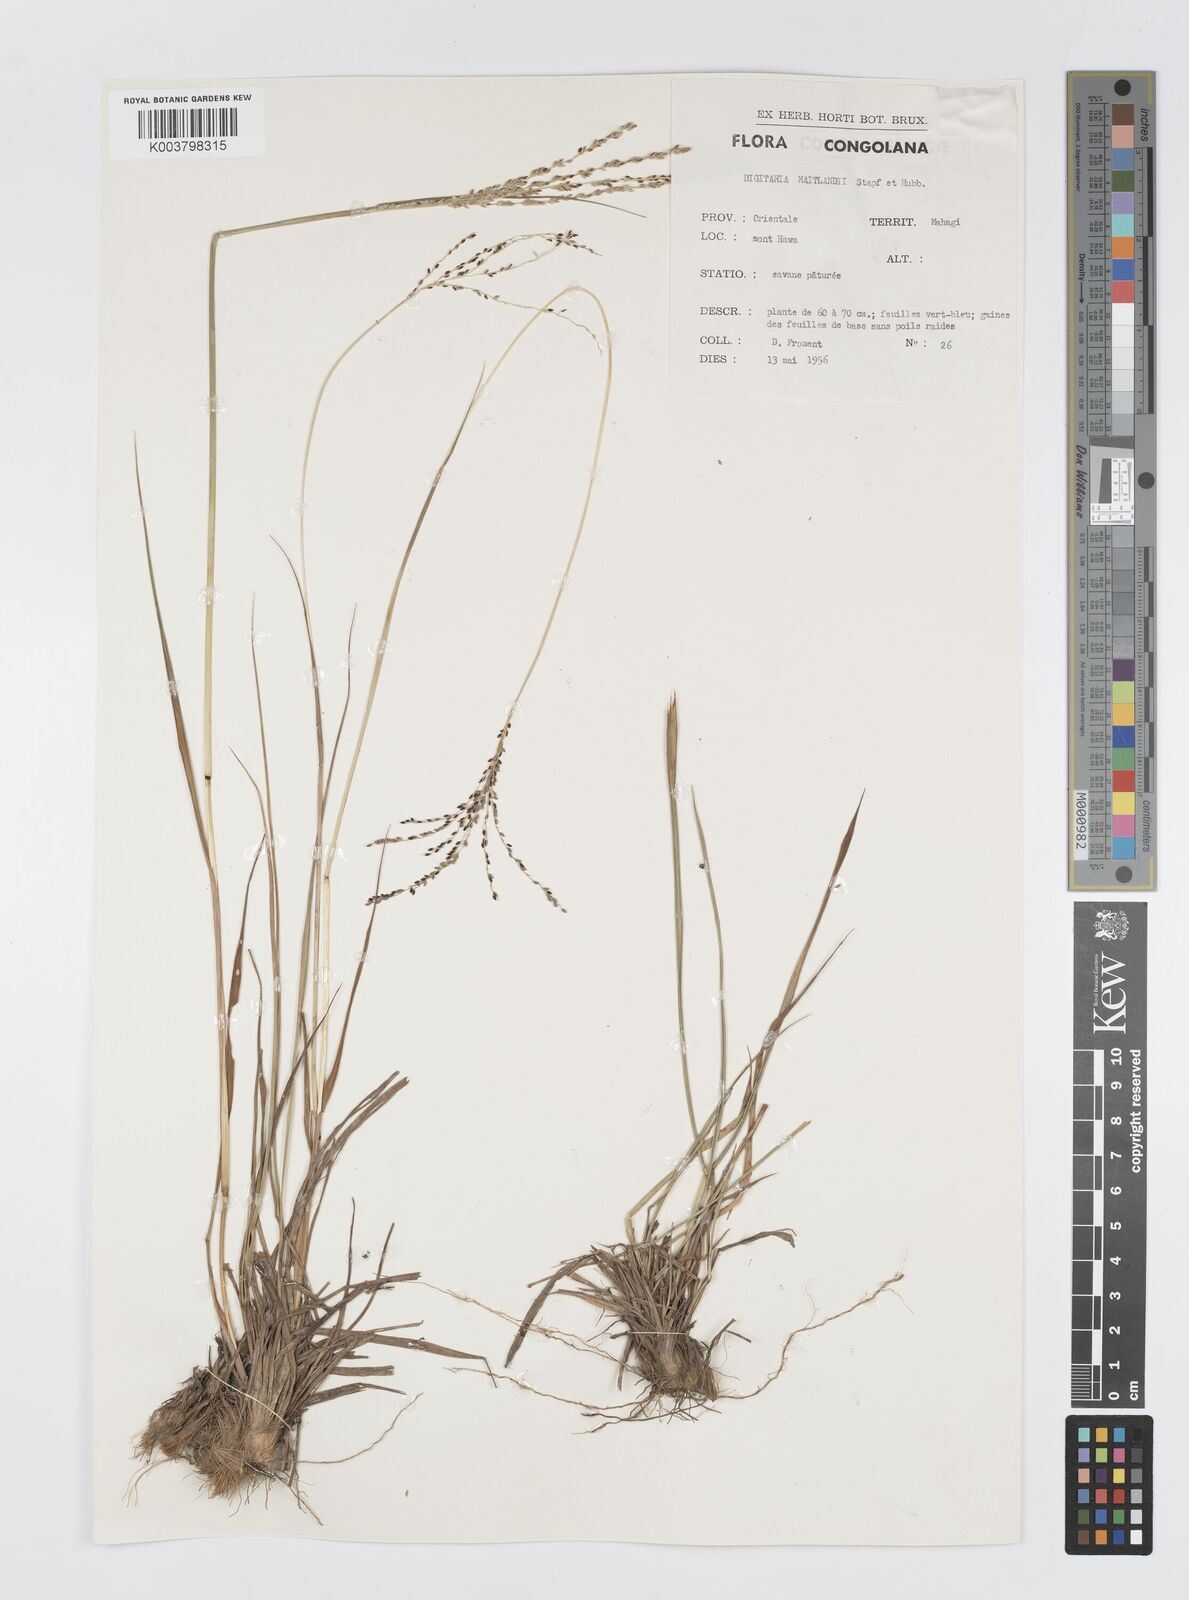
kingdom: Plantae
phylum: Tracheophyta
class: Liliopsida
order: Poales
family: Poaceae
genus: Digitaria
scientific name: Digitaria maitlandii
